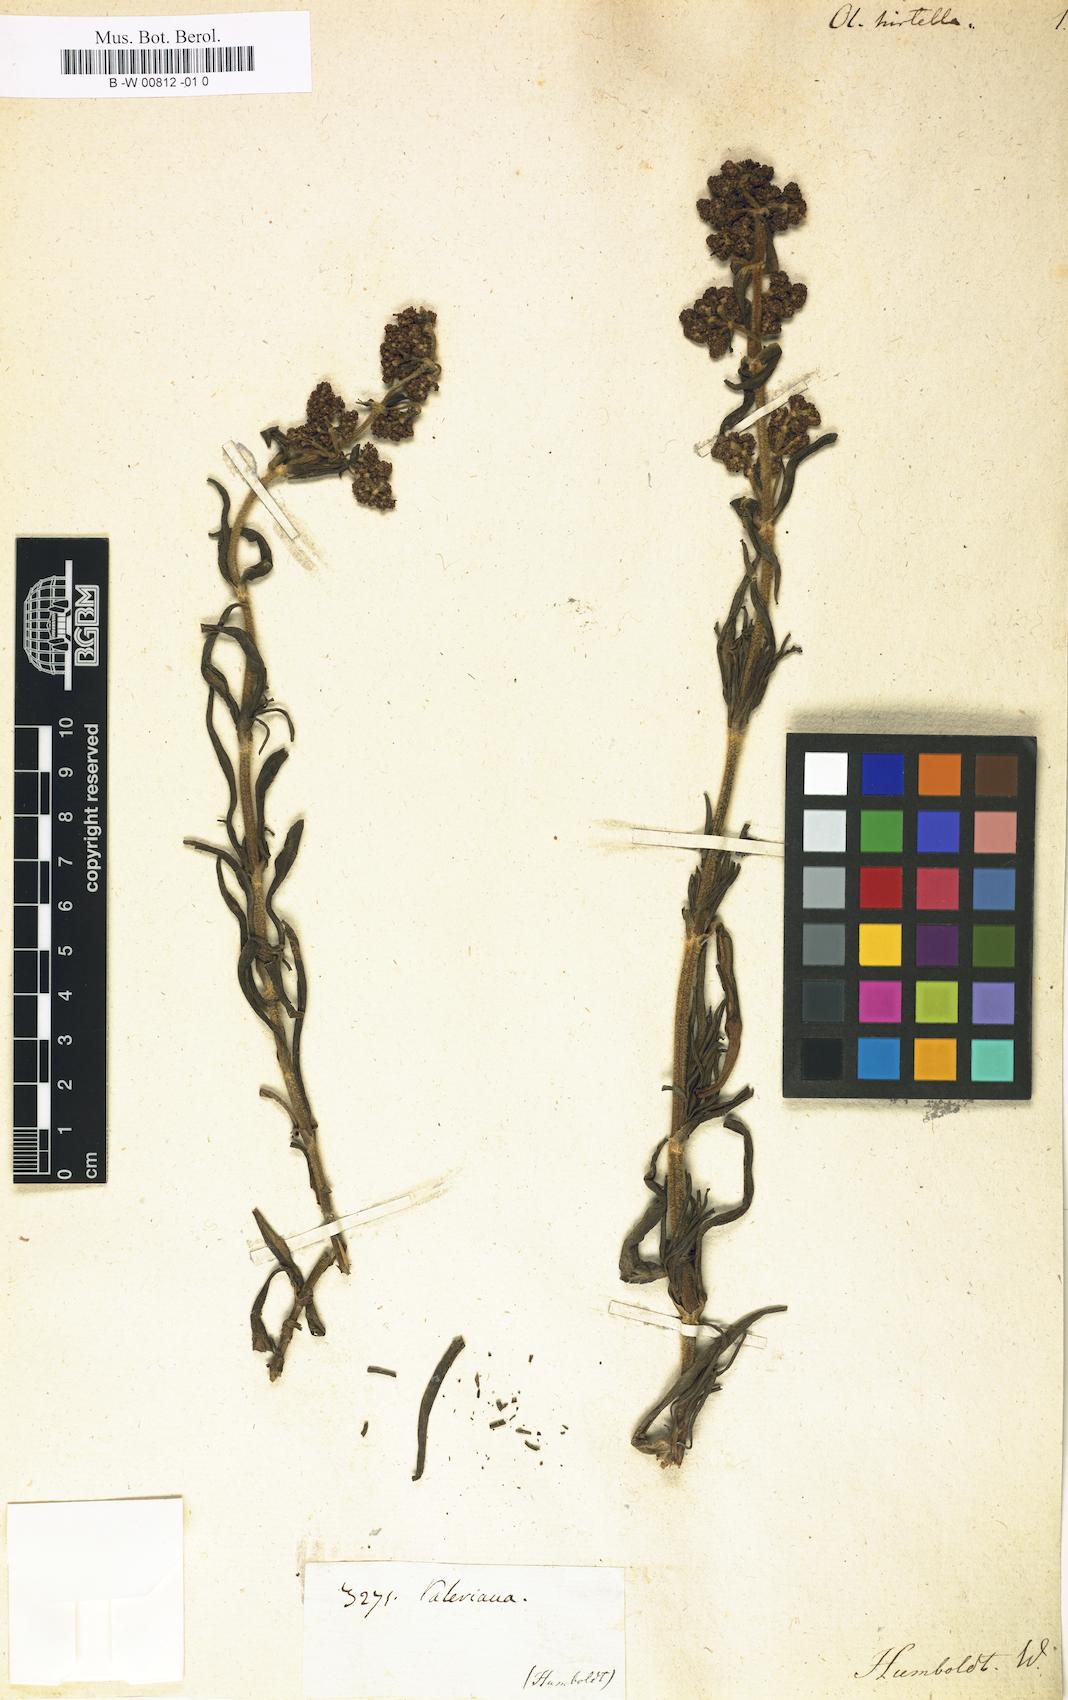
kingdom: Plantae
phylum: Tracheophyta
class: Magnoliopsida
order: Dipsacales
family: Caprifoliaceae
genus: Valeriana
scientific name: Valeriana
